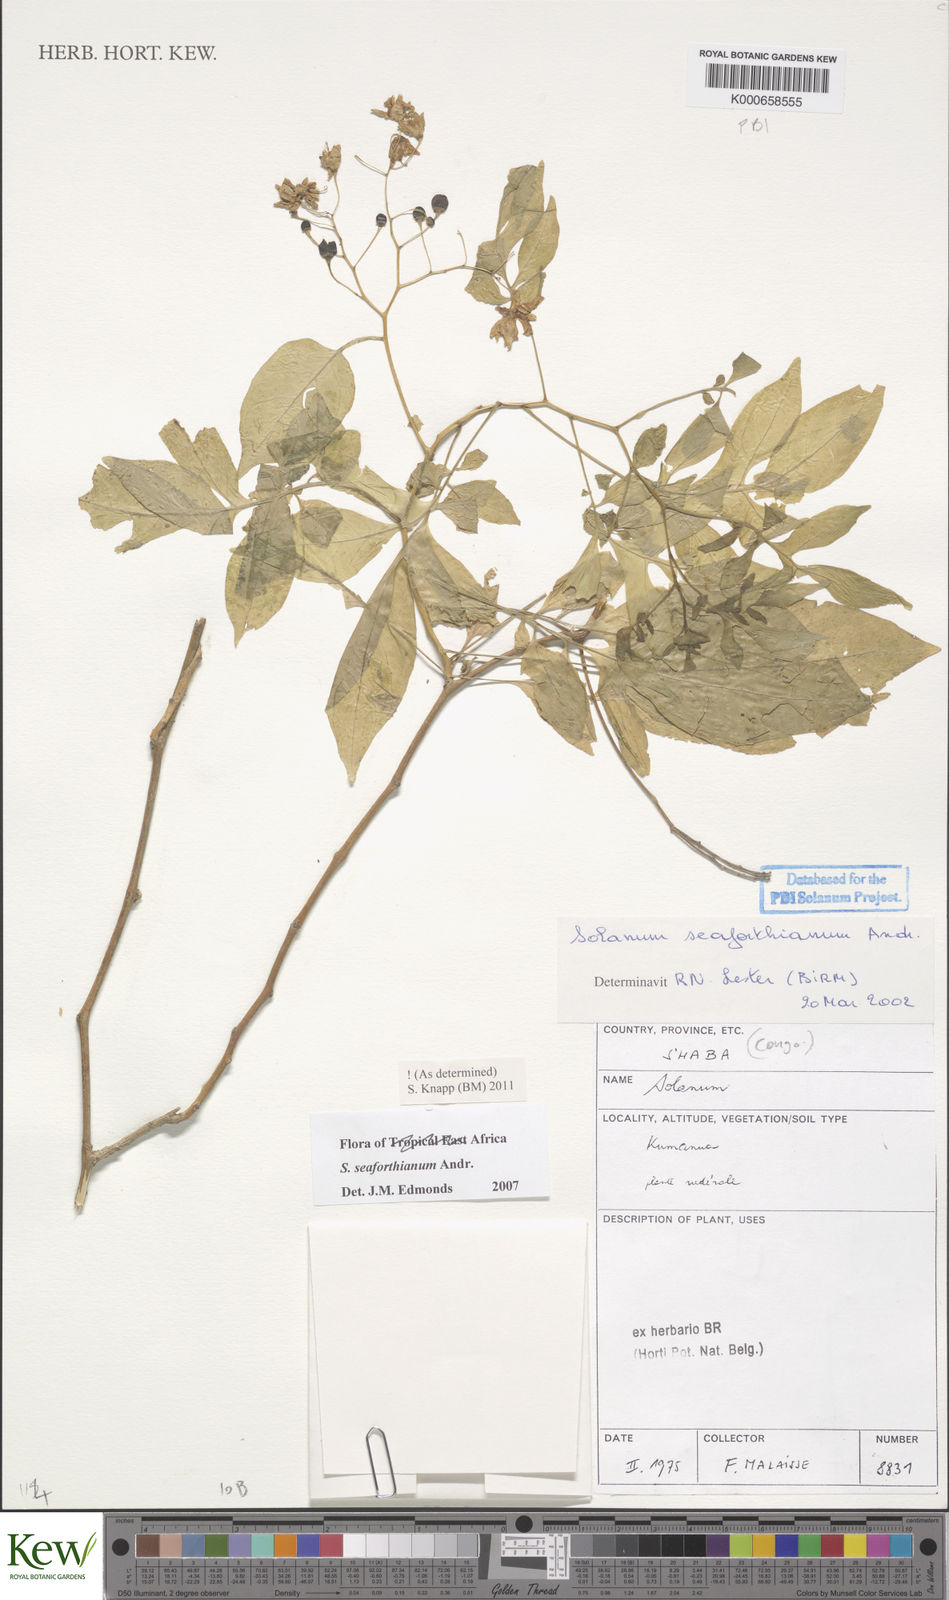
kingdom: Plantae
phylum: Tracheophyta
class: Magnoliopsida
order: Solanales
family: Solanaceae
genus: Solanum
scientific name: Solanum seaforthianum
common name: Brazilian nightshade
